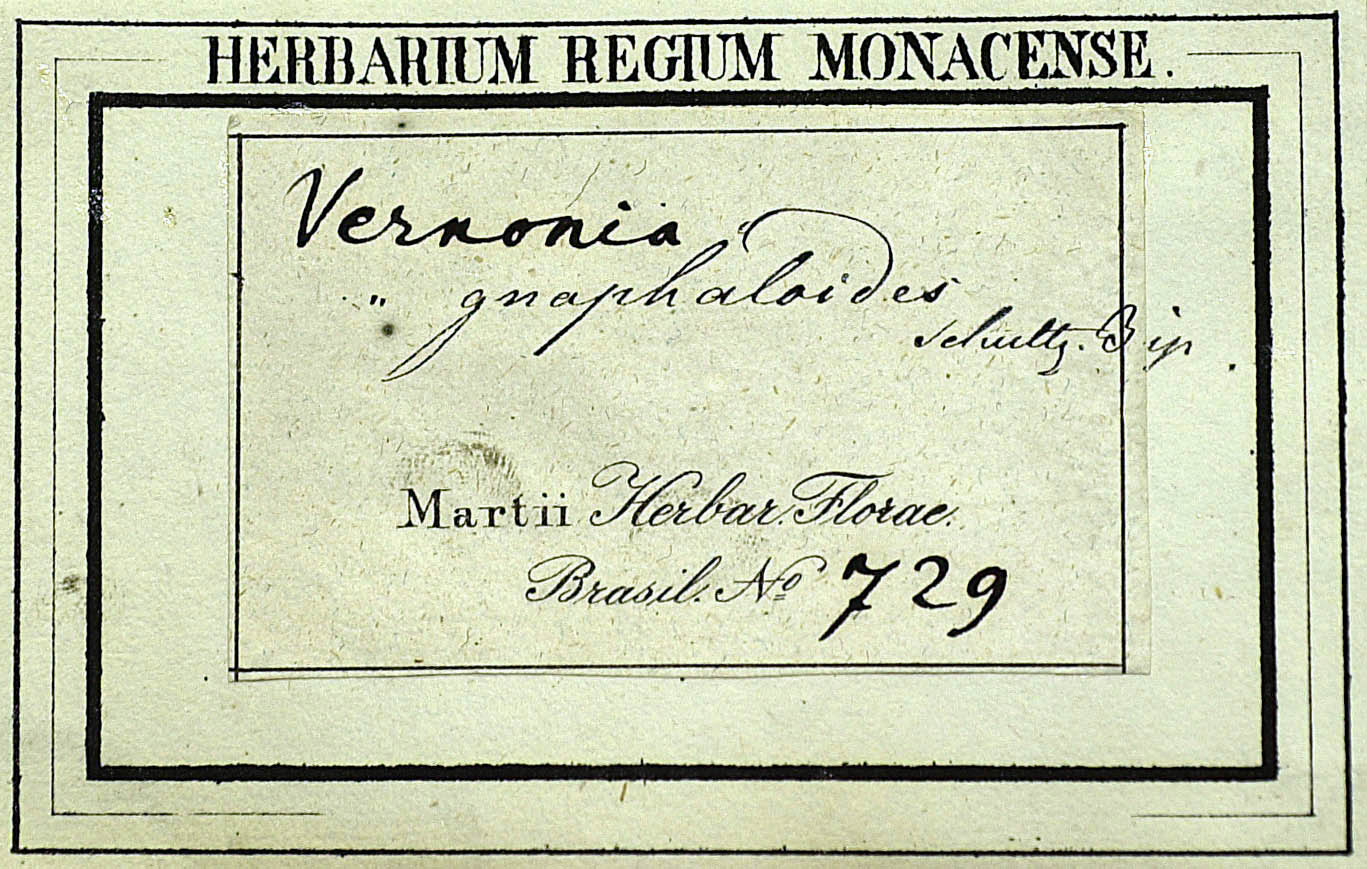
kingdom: Plantae
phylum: Tracheophyta
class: Magnoliopsida
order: Asterales
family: Asteraceae
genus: Lepidaploa
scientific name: Lepidaploa gnaphalioides
